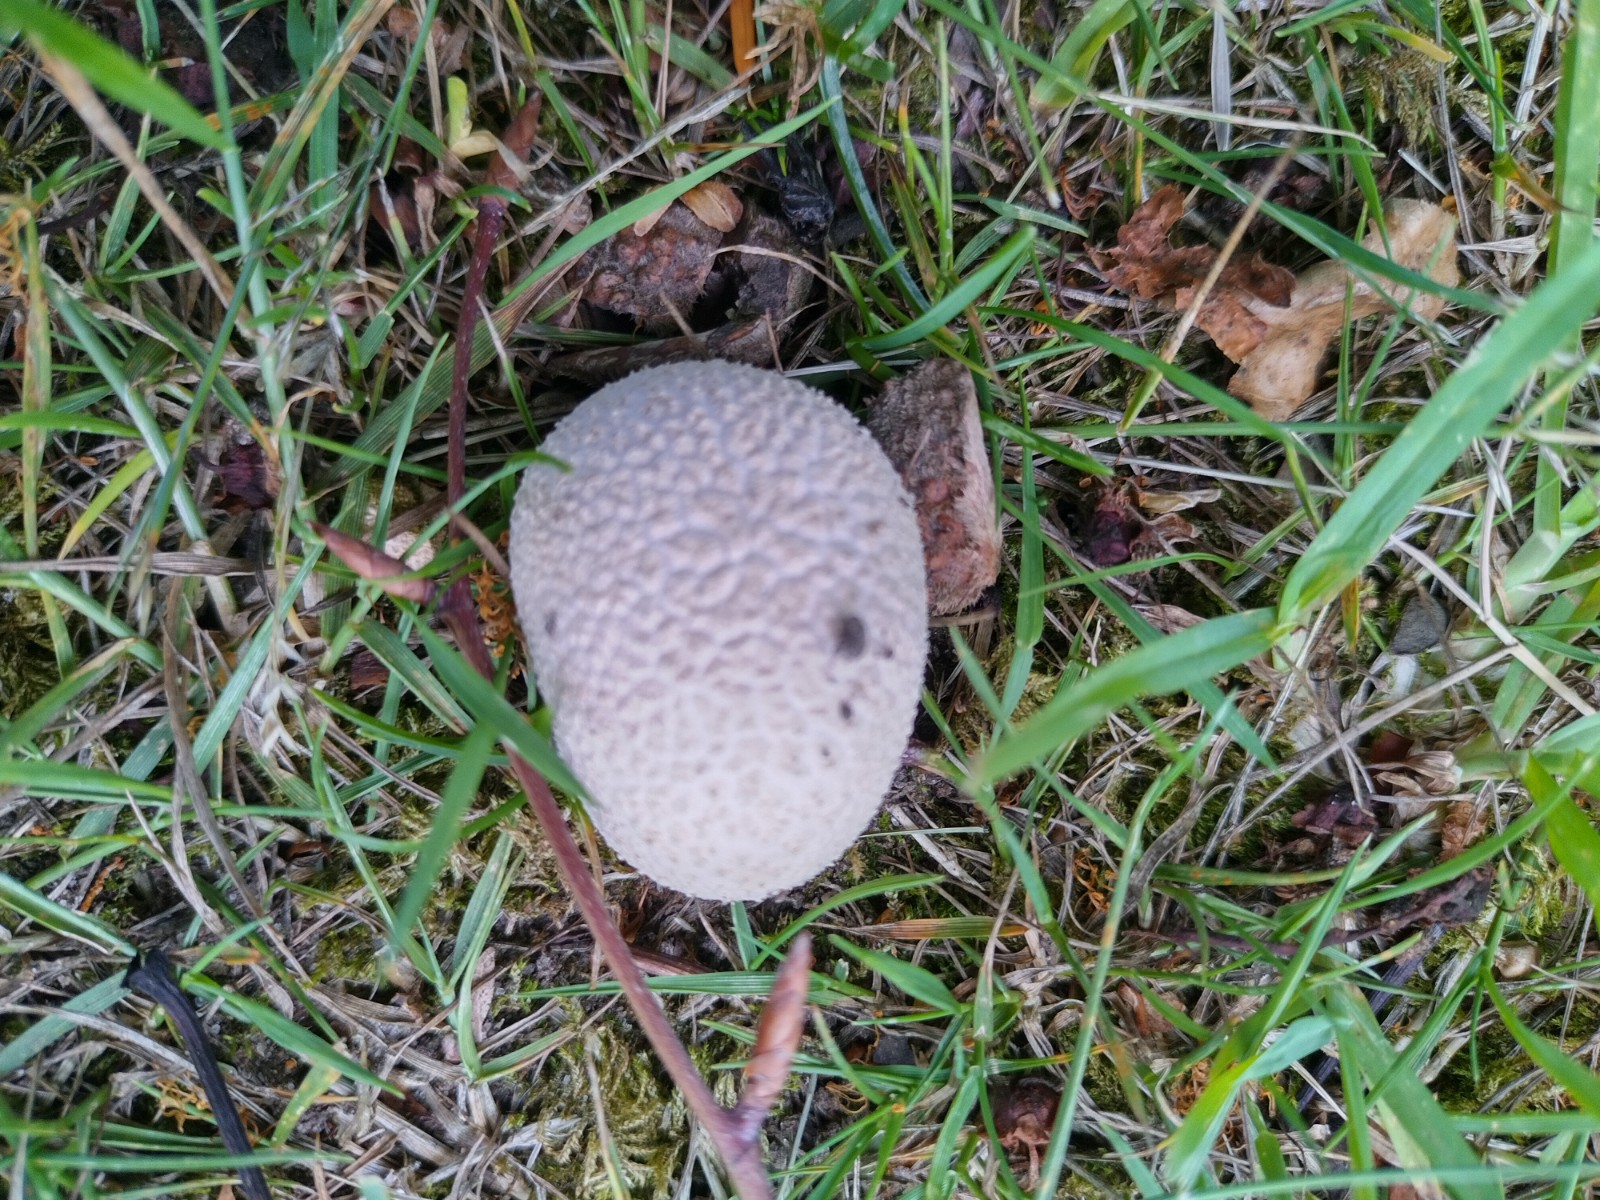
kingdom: Fungi
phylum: Basidiomycota
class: Agaricomycetes
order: Agaricales
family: Lycoperdaceae
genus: Lycoperdon
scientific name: Lycoperdon pratense
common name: flad støvbold
